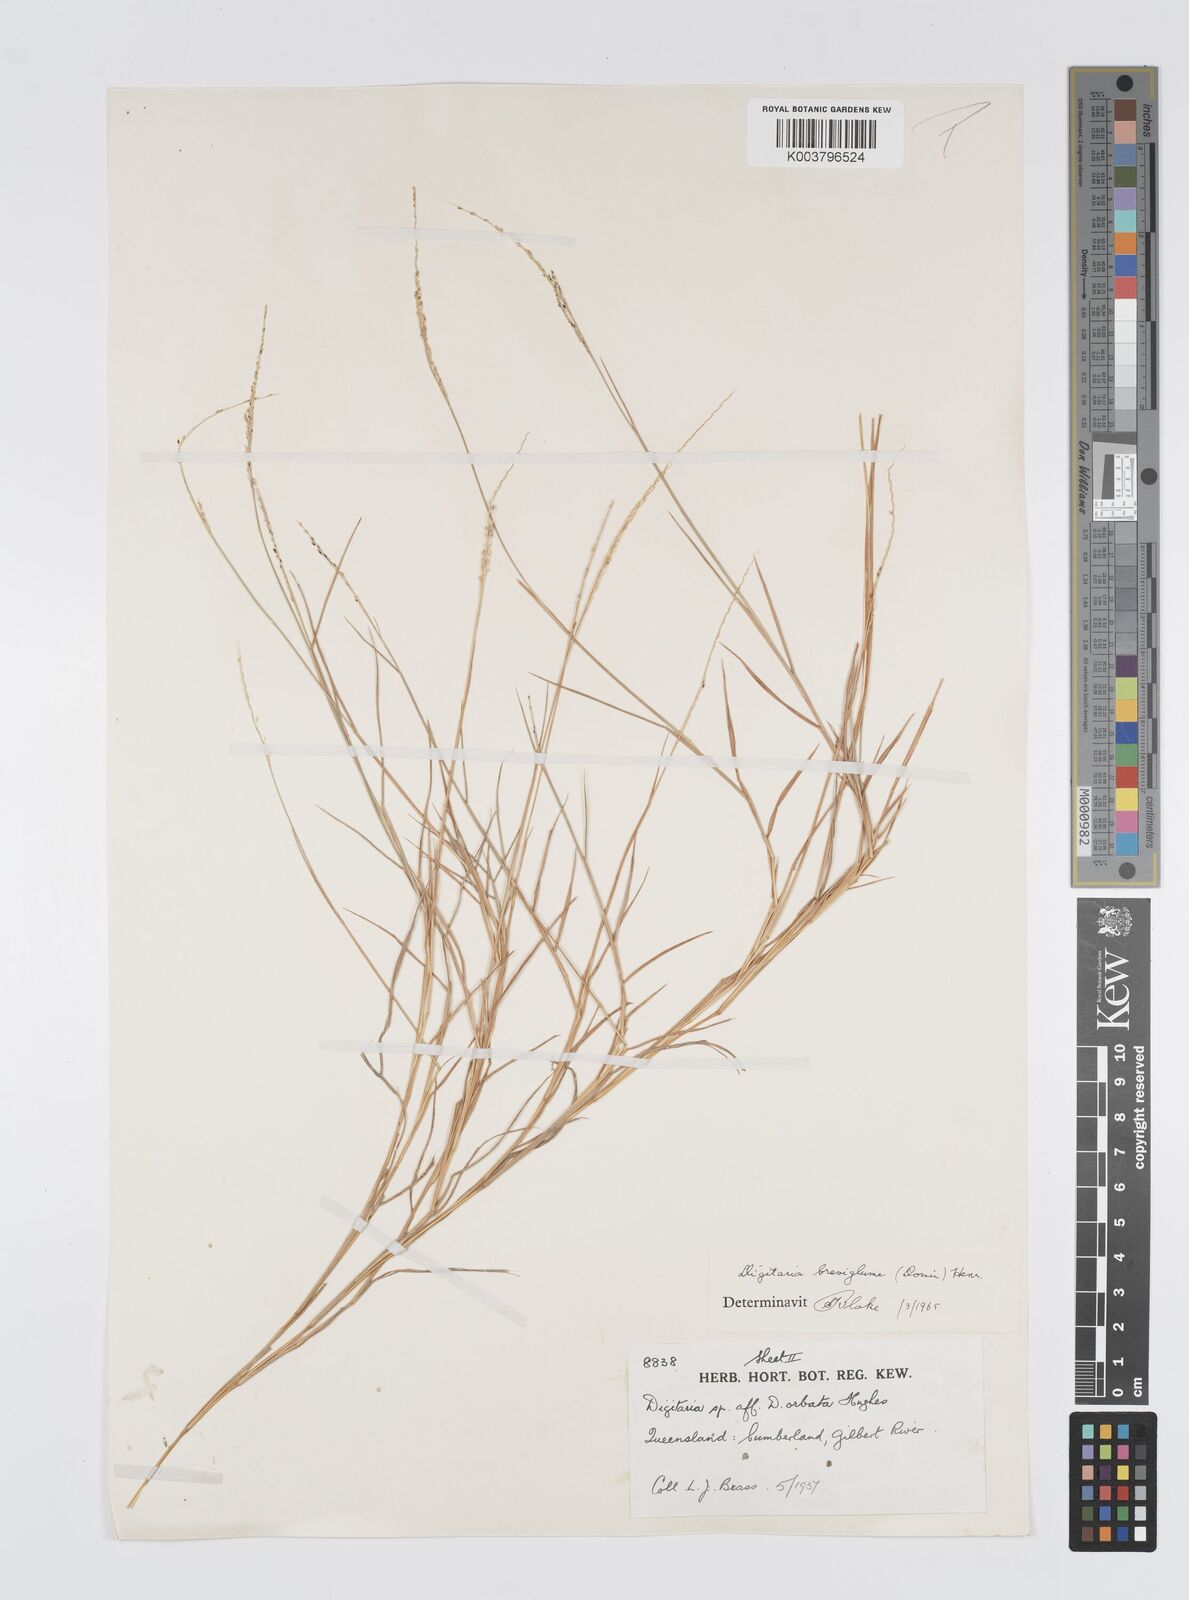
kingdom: Plantae
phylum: Tracheophyta
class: Liliopsida
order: Poales
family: Poaceae
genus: Digitaria
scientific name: Digitaria breviglumis
